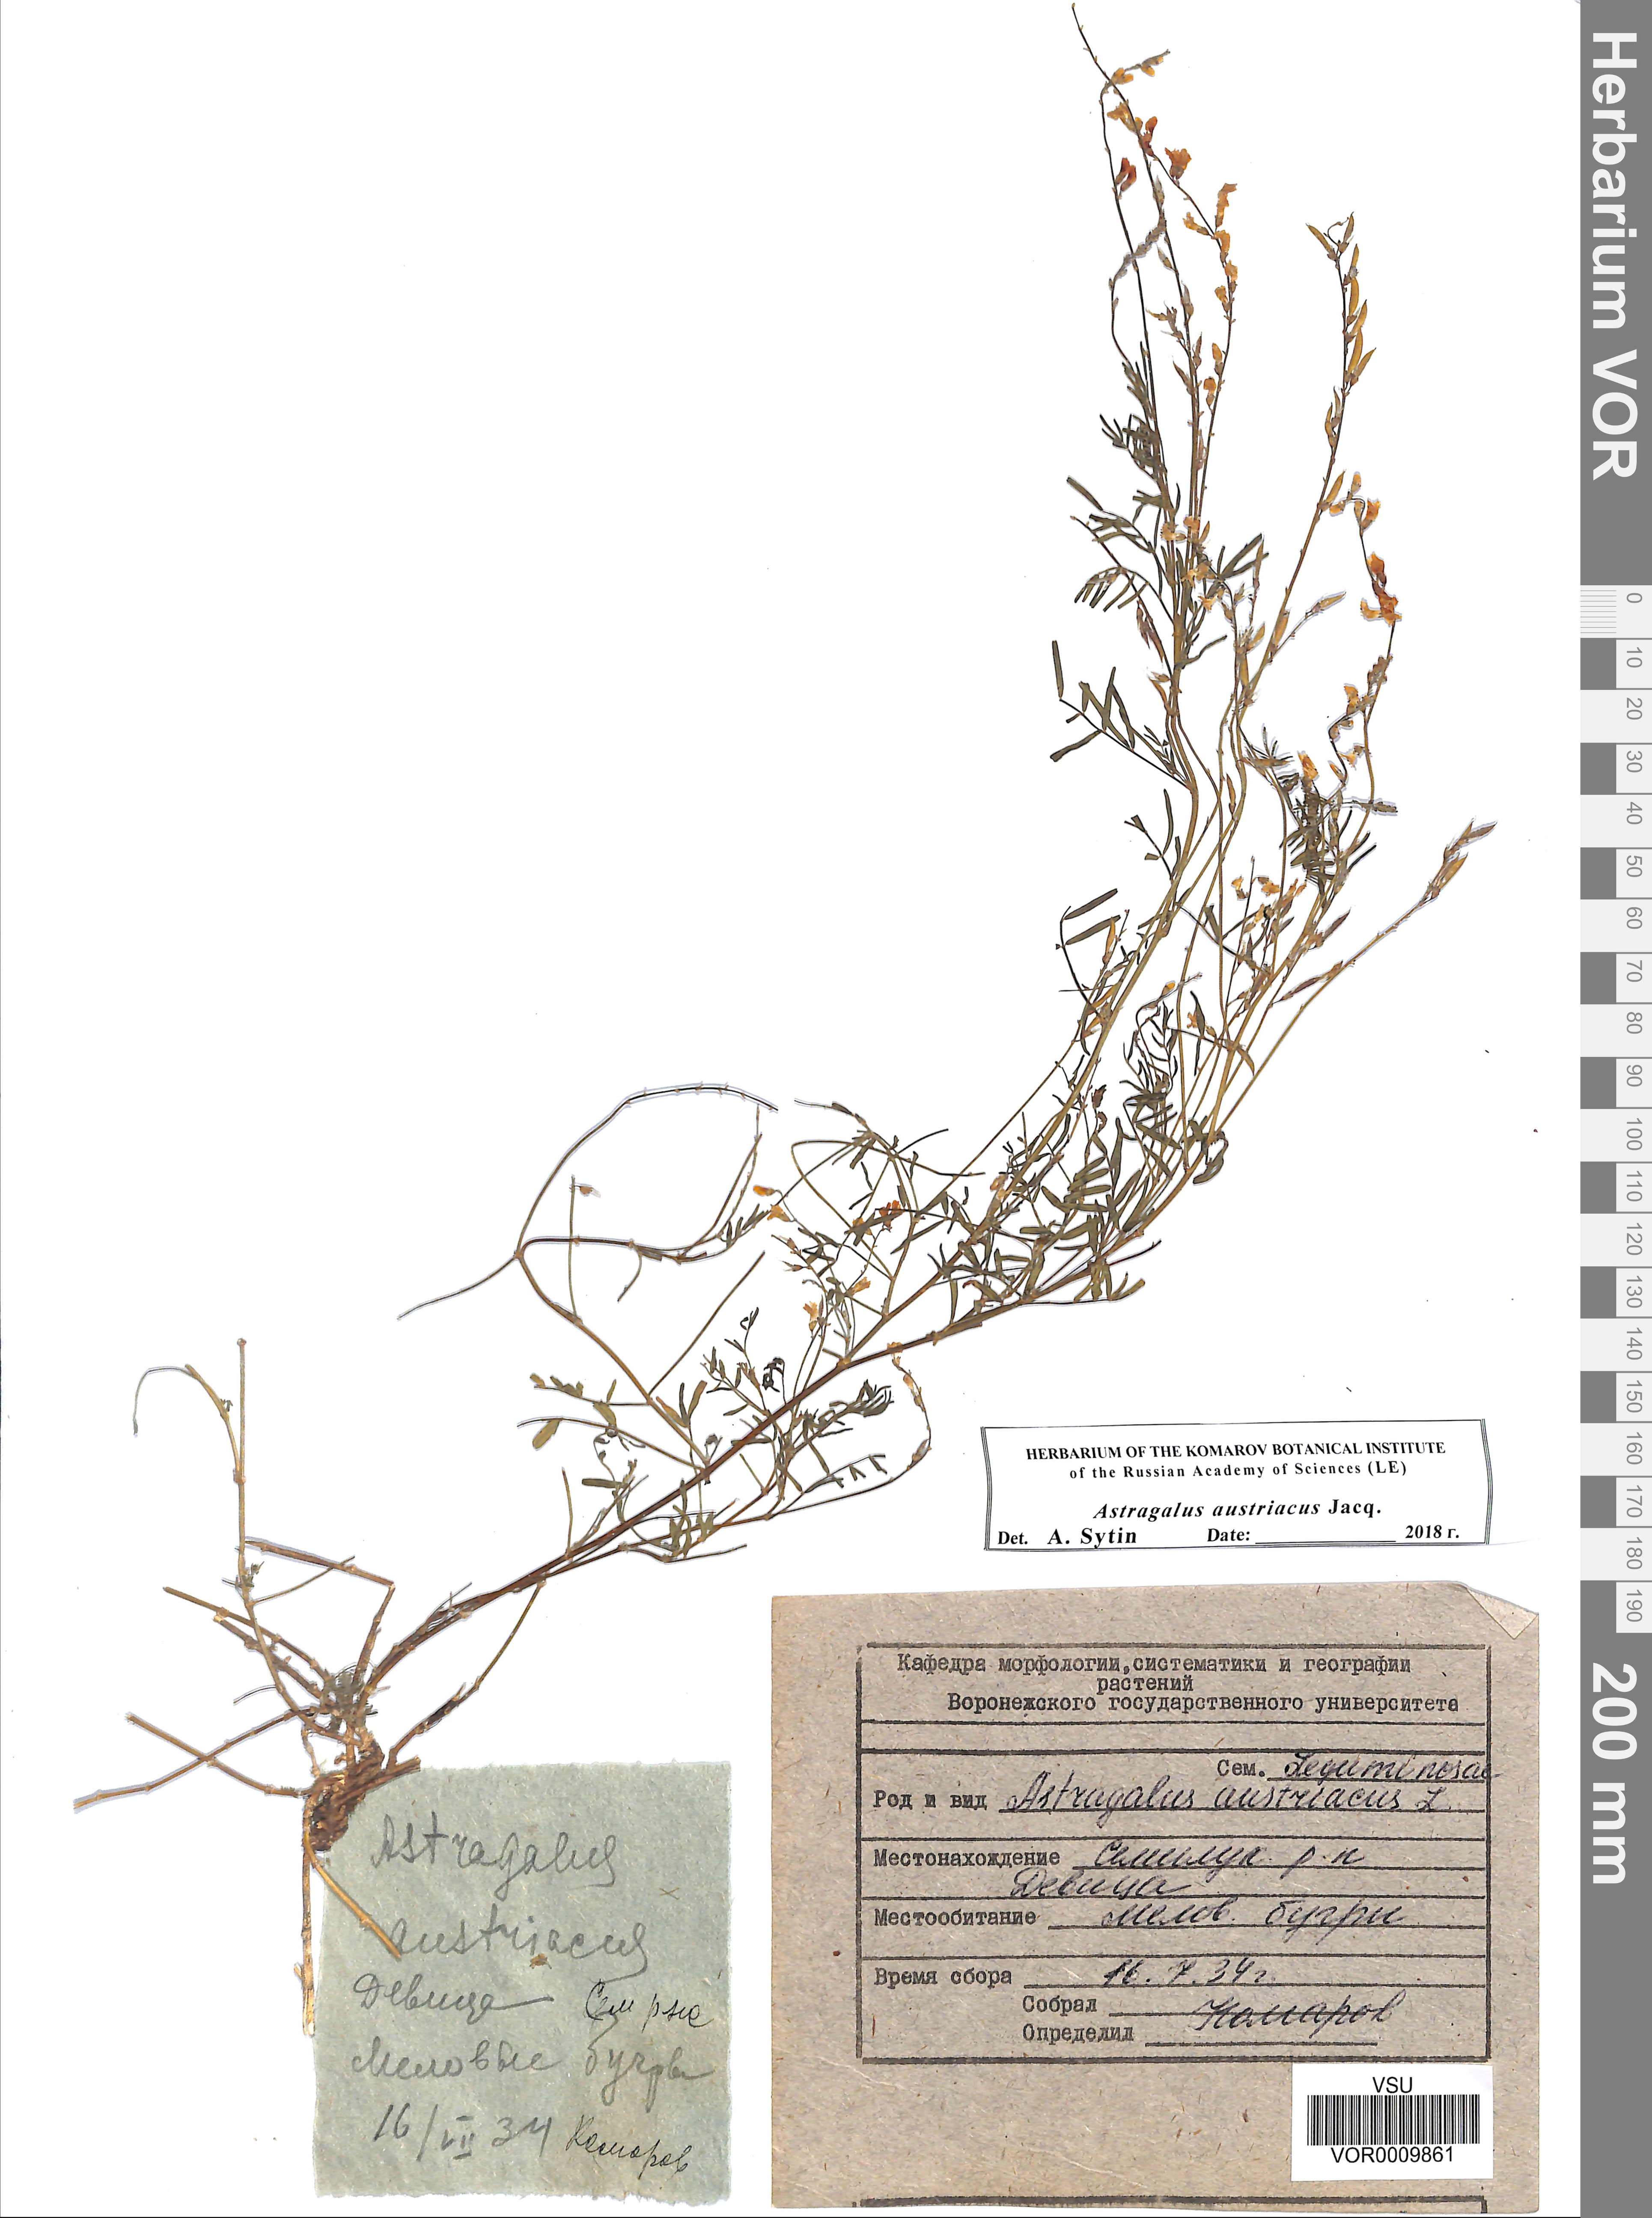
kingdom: Plantae
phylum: Tracheophyta
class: Magnoliopsida
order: Fabales
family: Fabaceae
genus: Astragalus
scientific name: Astragalus austriacus
